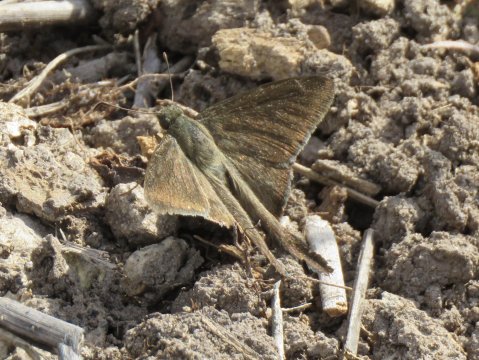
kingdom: Animalia
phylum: Arthropoda
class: Insecta
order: Lepidoptera
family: Hesperiidae
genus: Urbanus
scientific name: Urbanus procne
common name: Brown Longtail
